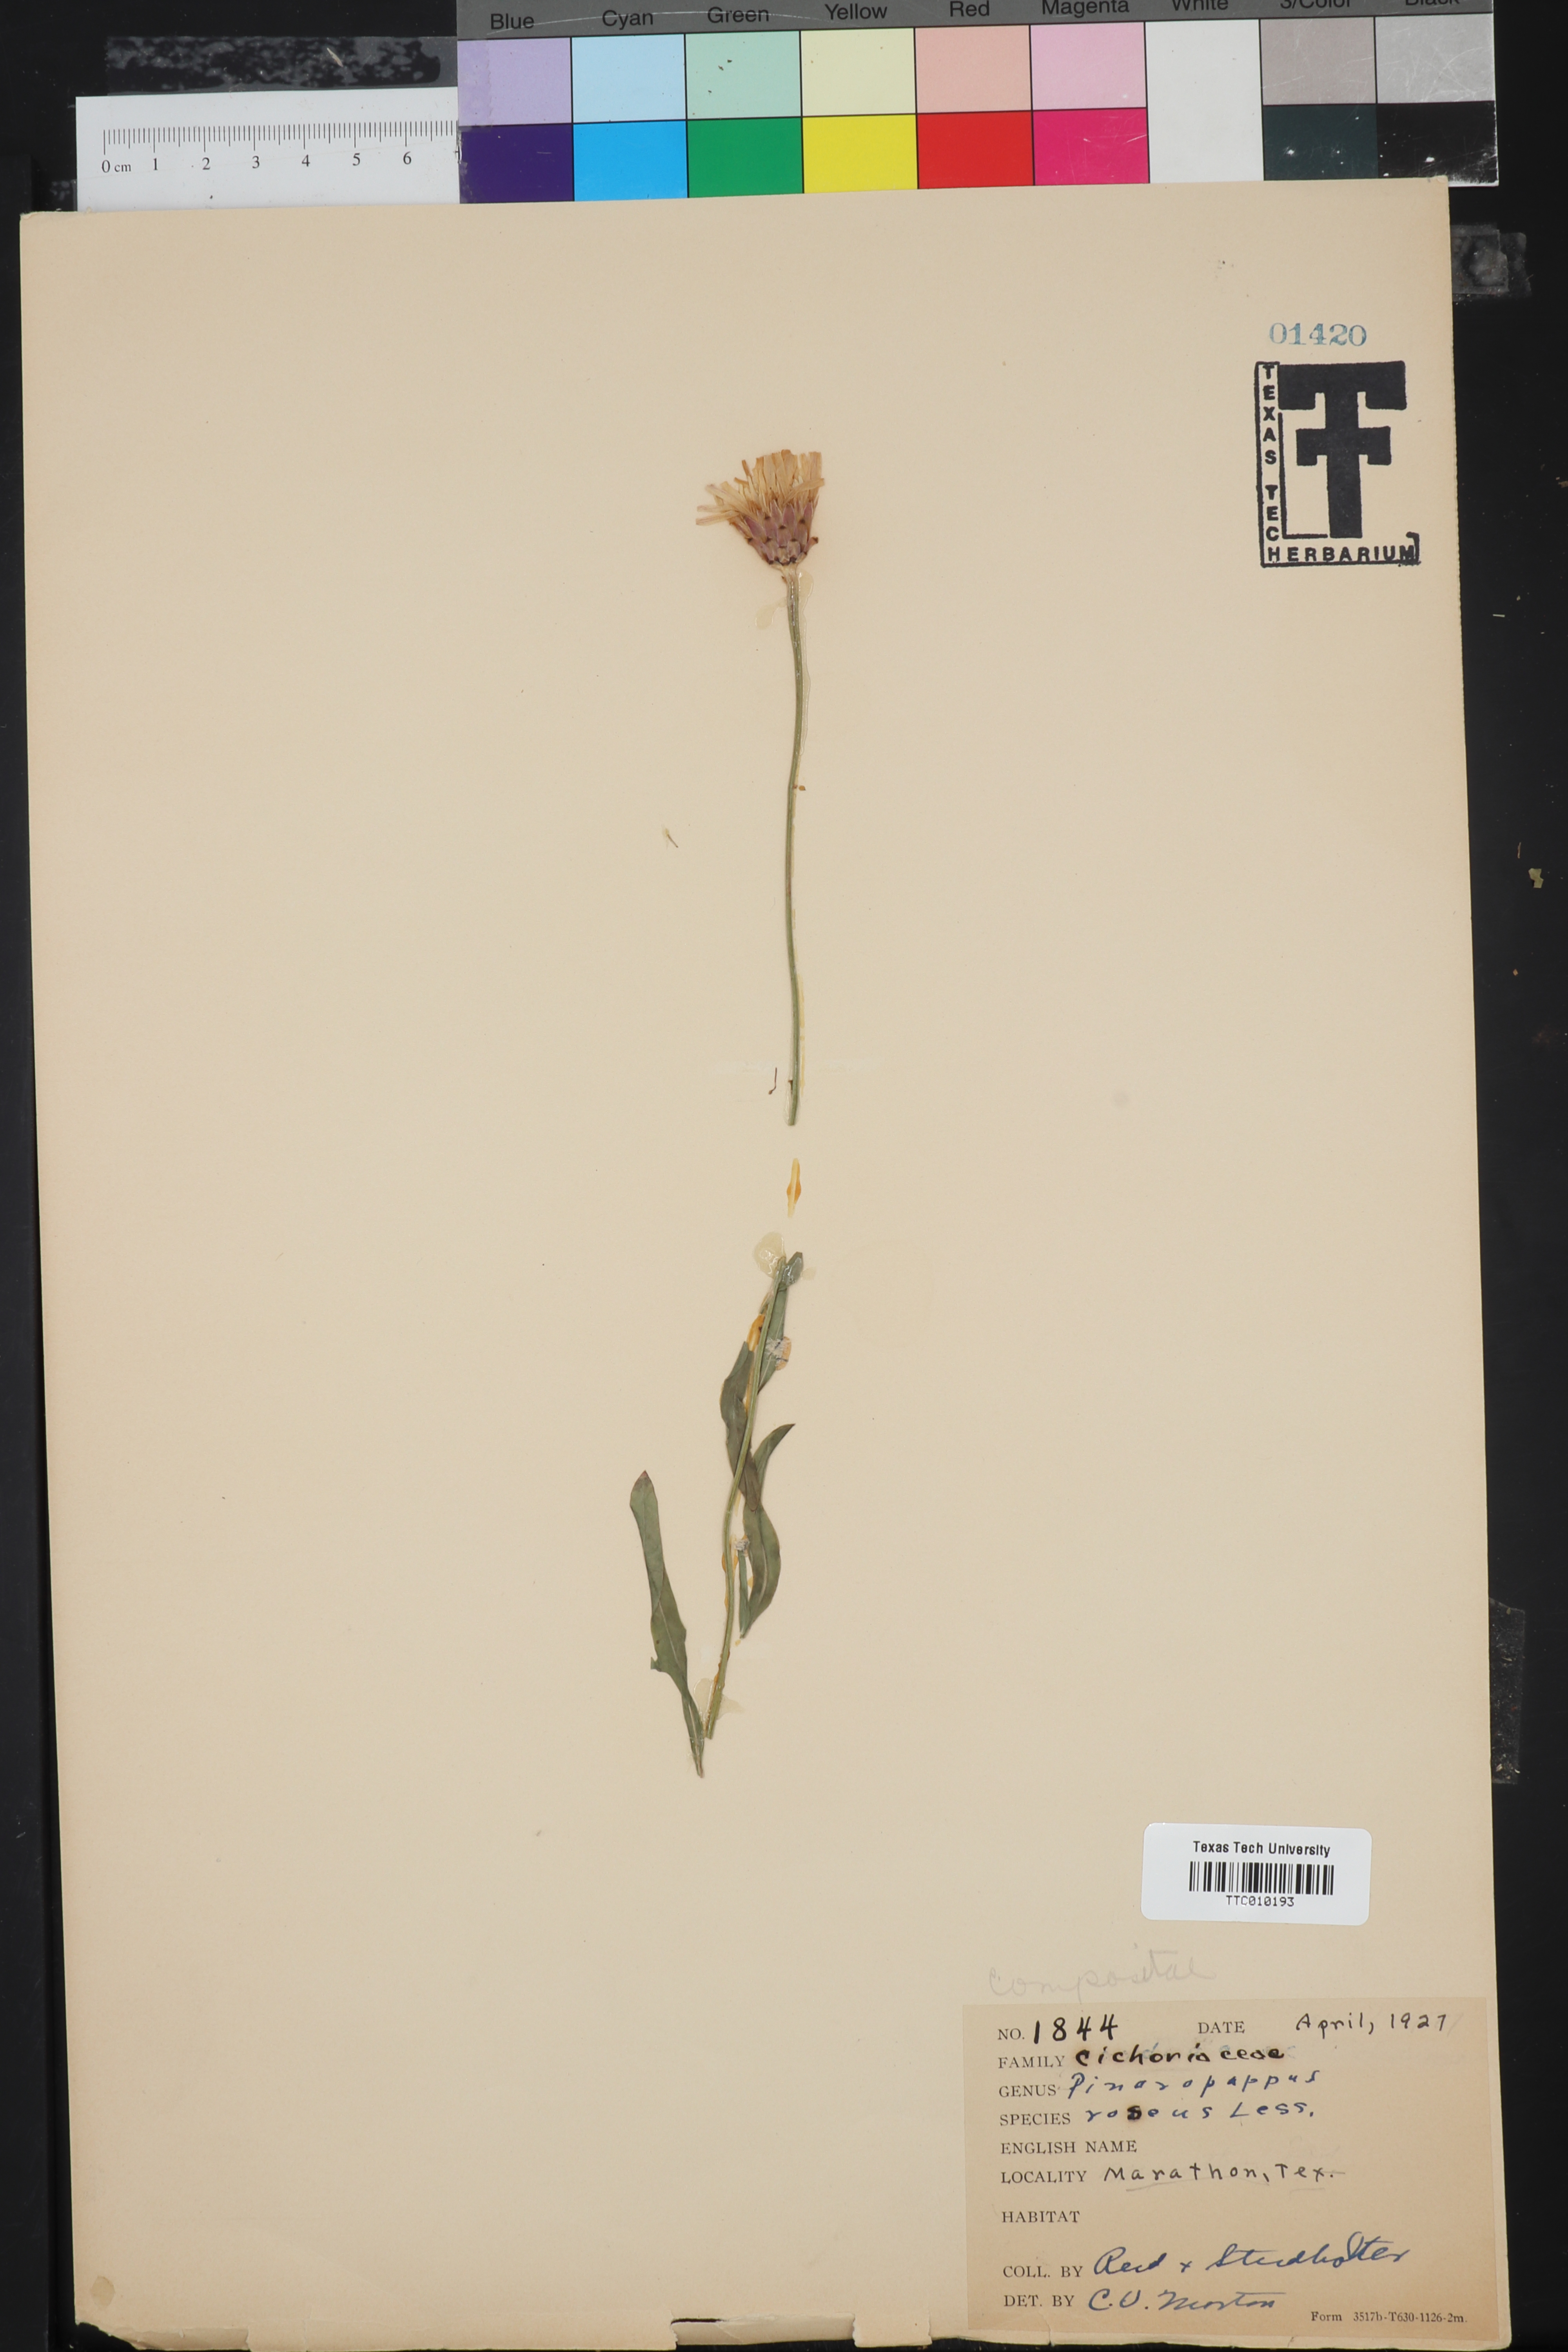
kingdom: Plantae
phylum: Tracheophyta
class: Magnoliopsida
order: Asterales
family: Asteraceae
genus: Pinaropappus
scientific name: Pinaropappus roseus
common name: Rock-lettuce
